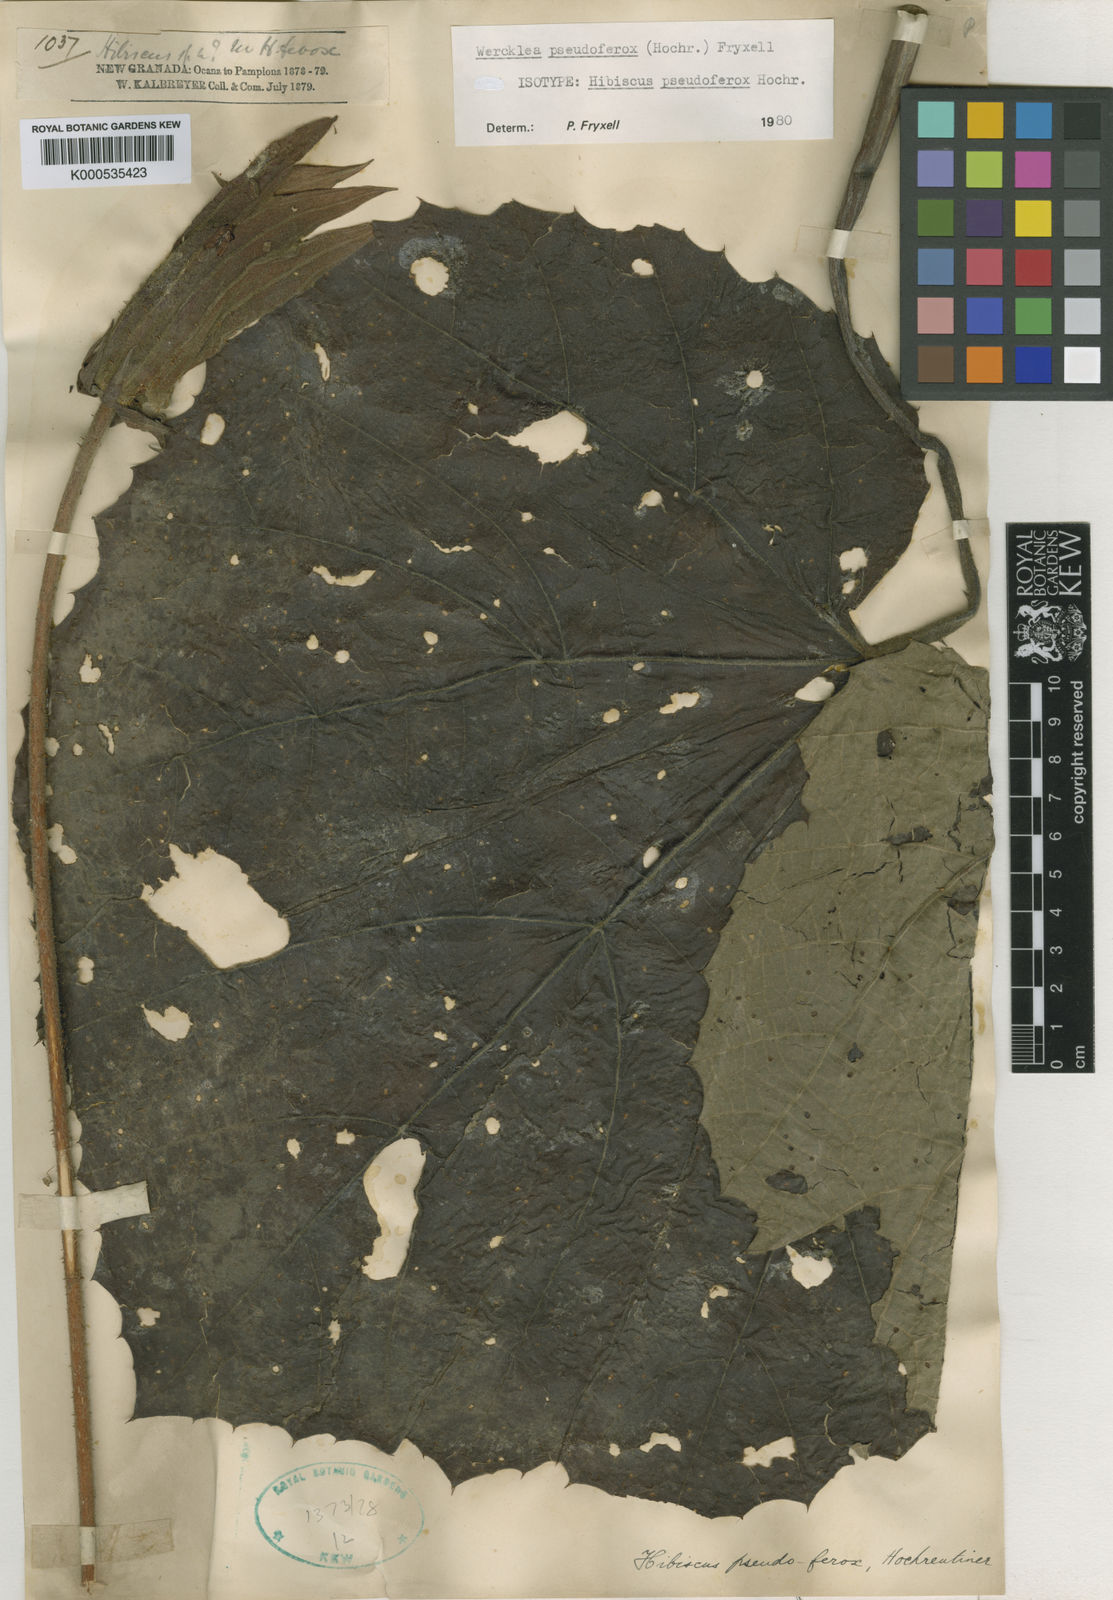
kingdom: Plantae
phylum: Tracheophyta
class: Magnoliopsida
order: Malvales
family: Malvaceae
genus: Wercklea
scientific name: Wercklea pseudoferox
